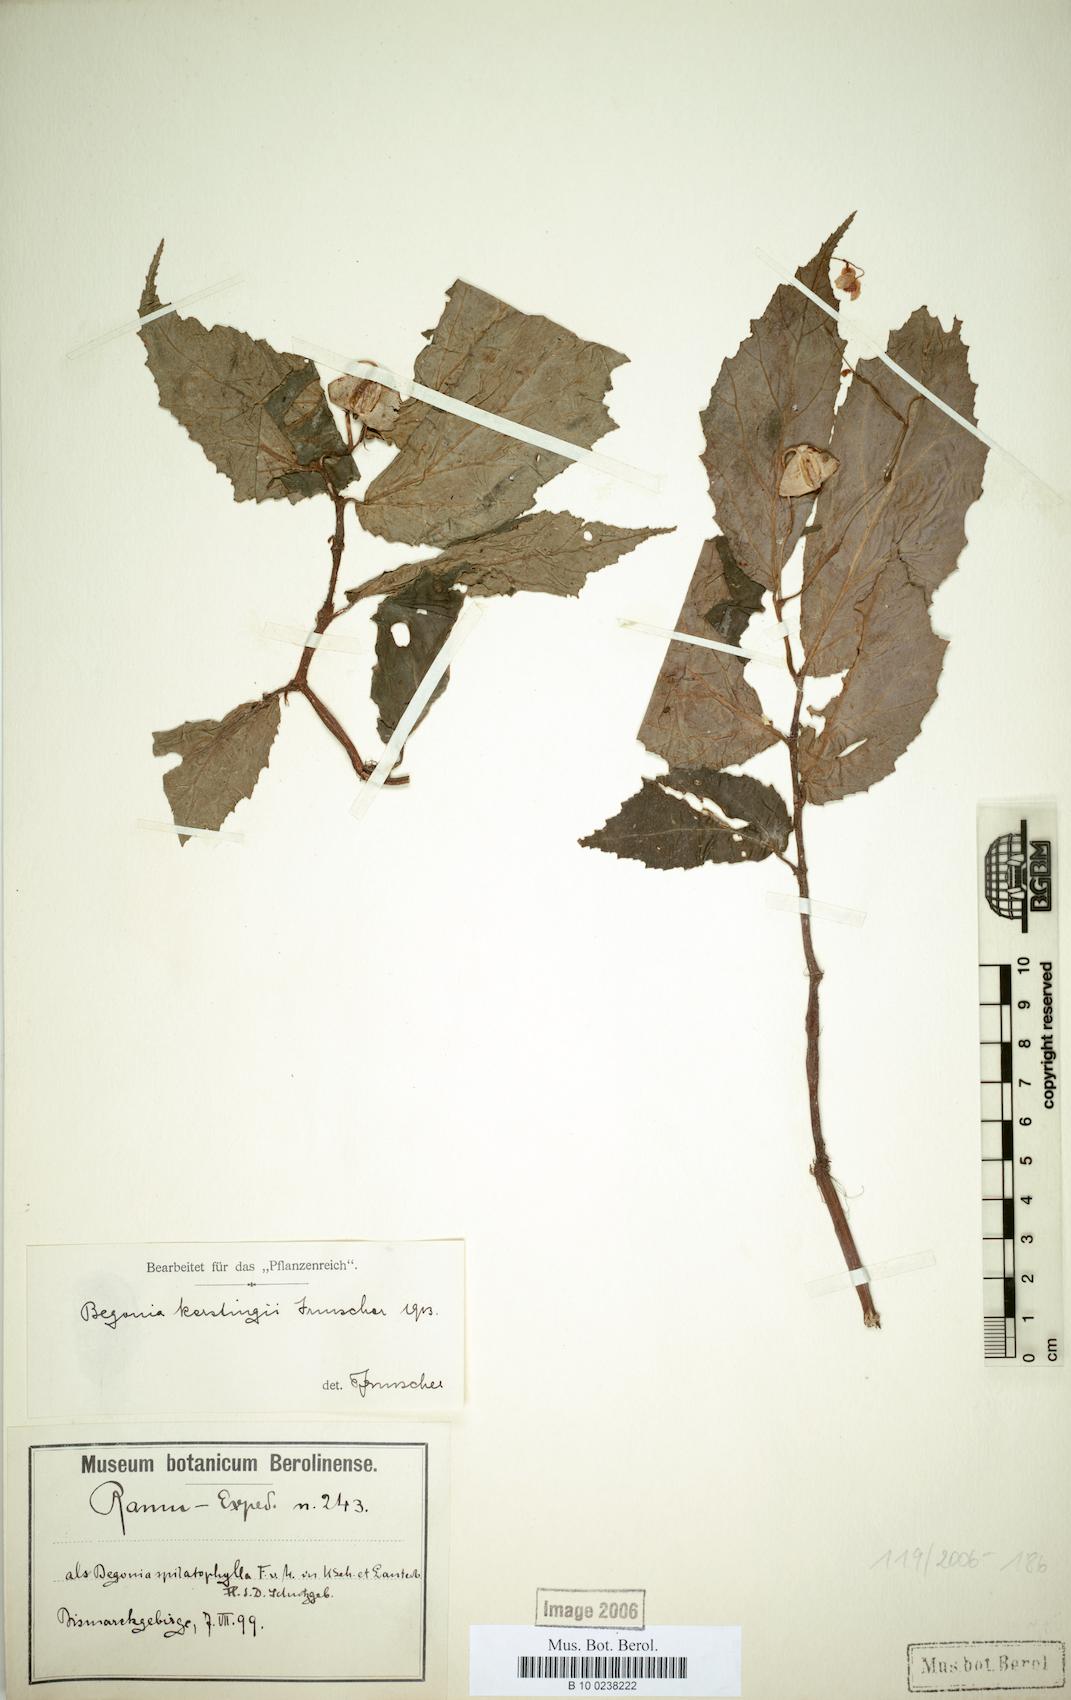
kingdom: Plantae
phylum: Tracheophyta
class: Magnoliopsida
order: Cucurbitales
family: Begoniaceae
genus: Begonia
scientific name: Begonia kerstingii
